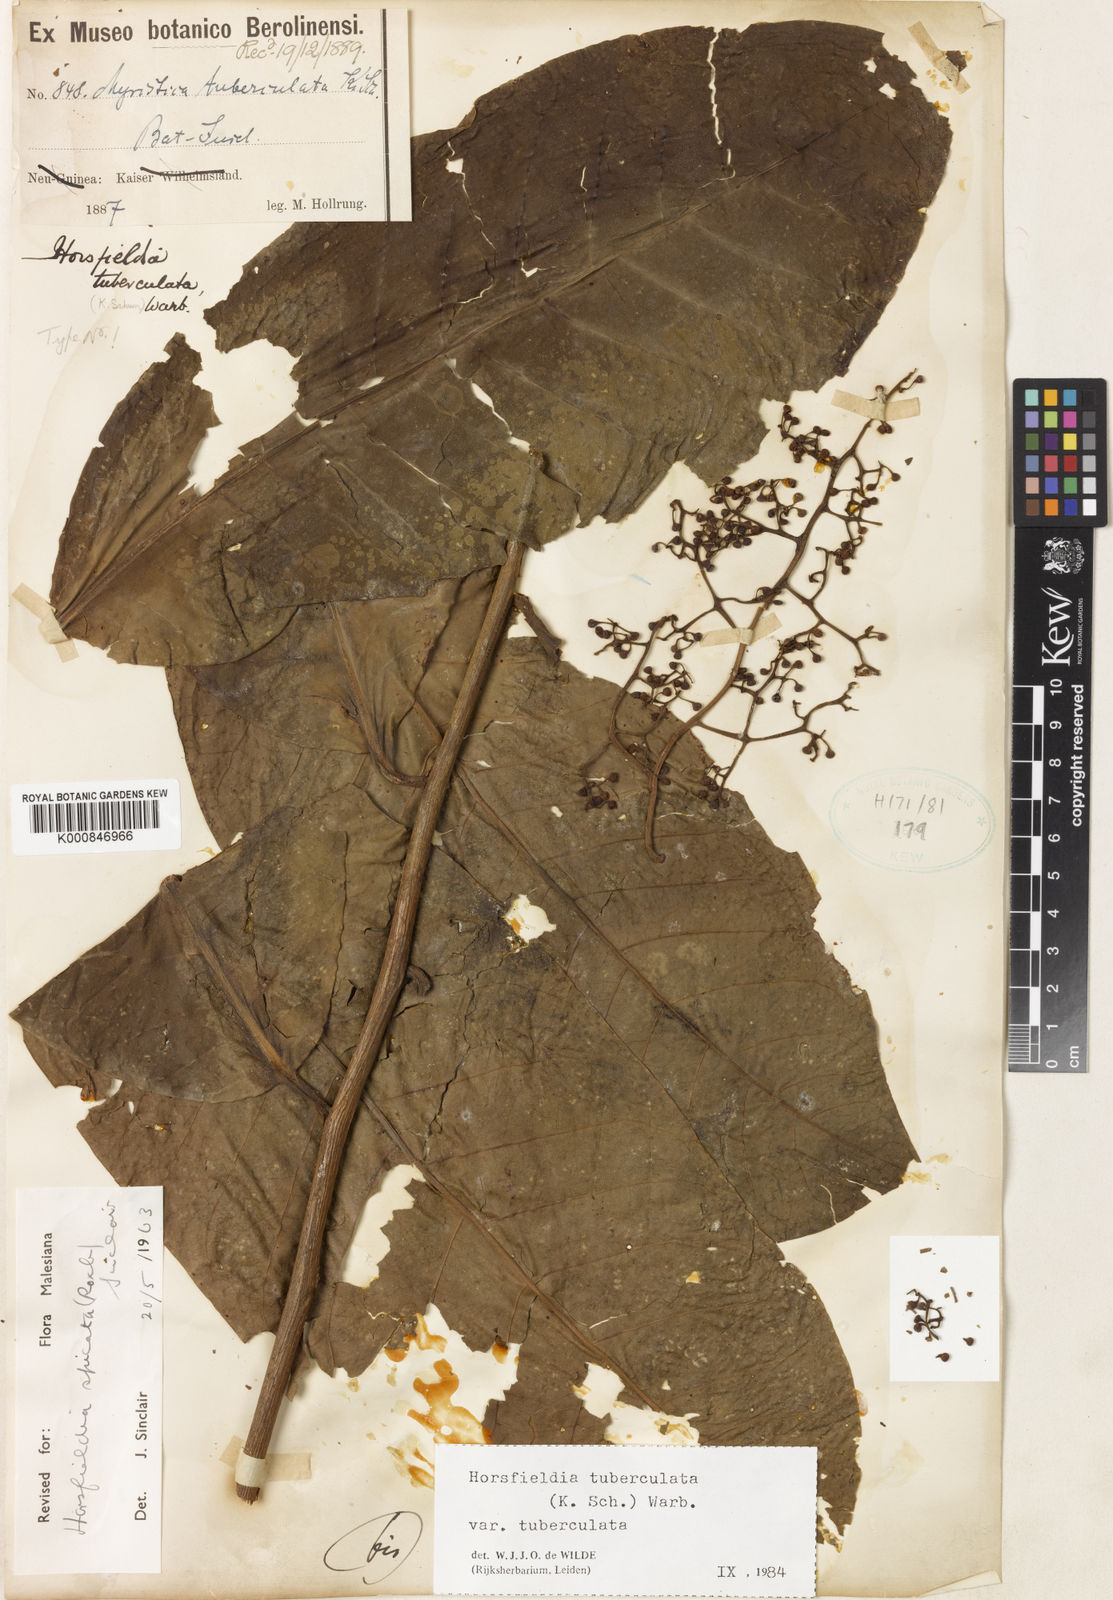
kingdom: Plantae
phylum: Tracheophyta
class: Magnoliopsida
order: Magnoliales
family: Myristicaceae
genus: Horsfieldia
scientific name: Horsfieldia tuberculata
